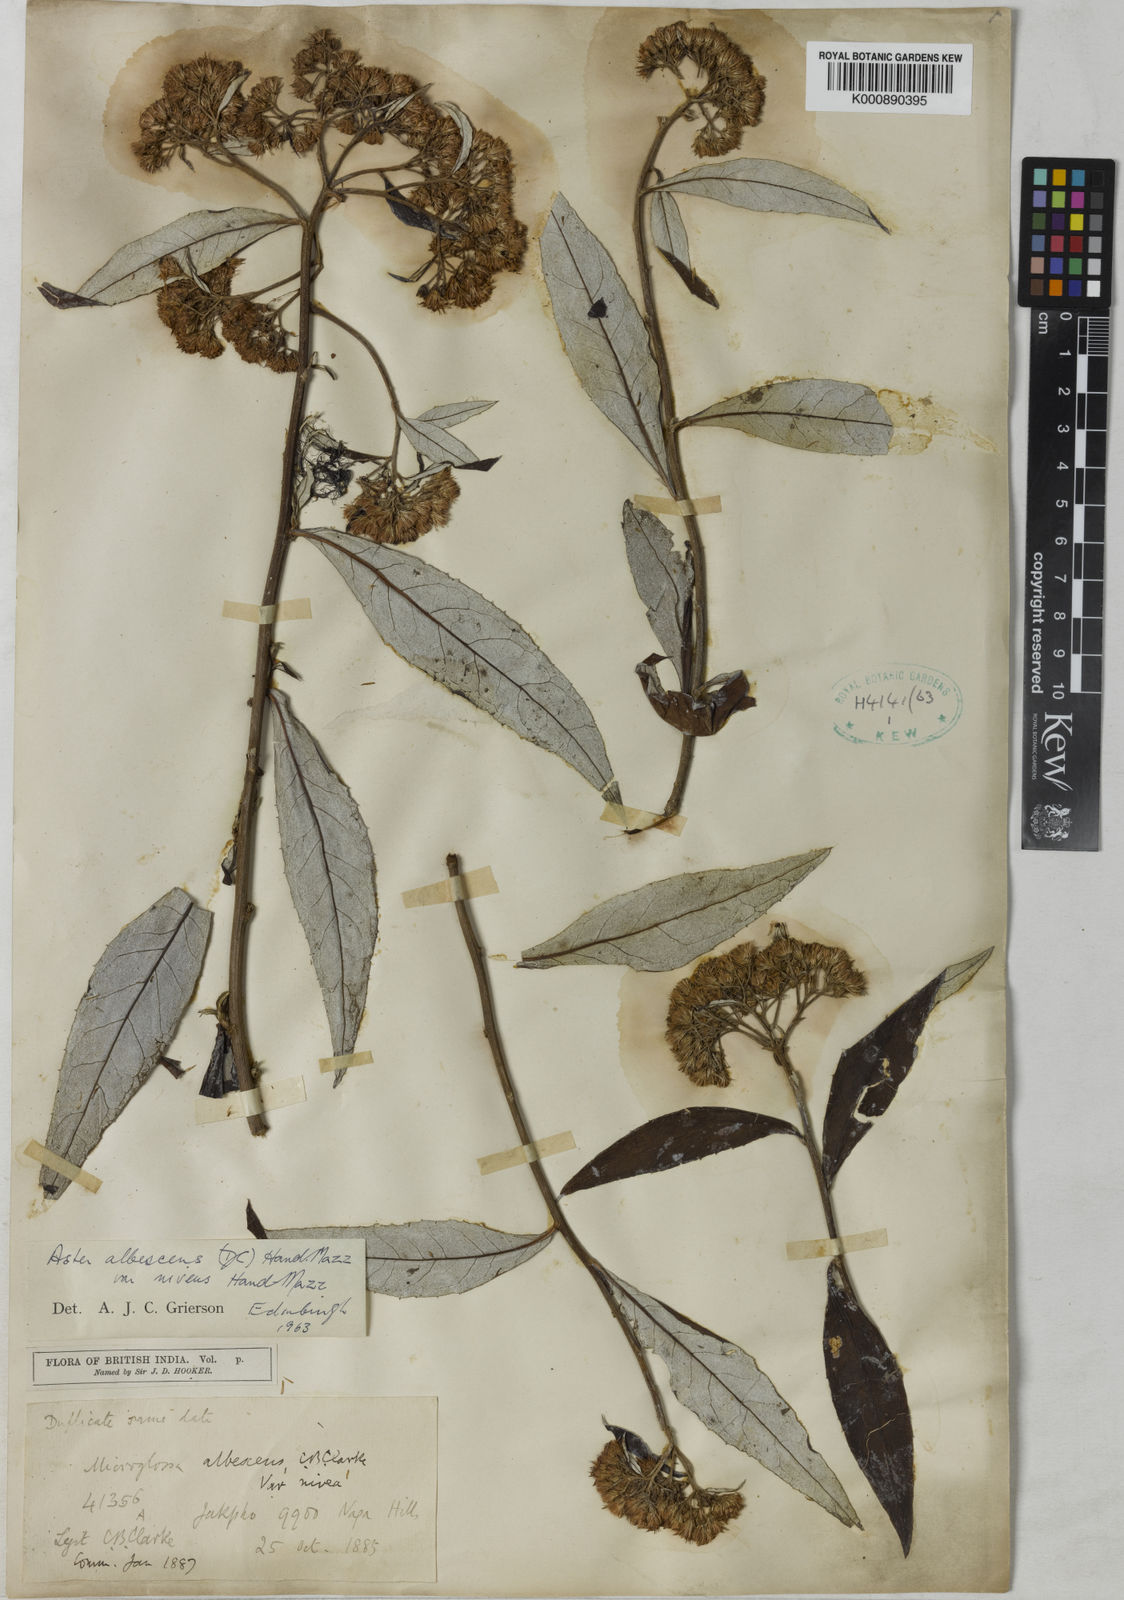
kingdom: Plantae
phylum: Tracheophyta
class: Magnoliopsida
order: Asterales
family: Asteraceae
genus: Sinosidus
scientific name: Sinosidus albescens
